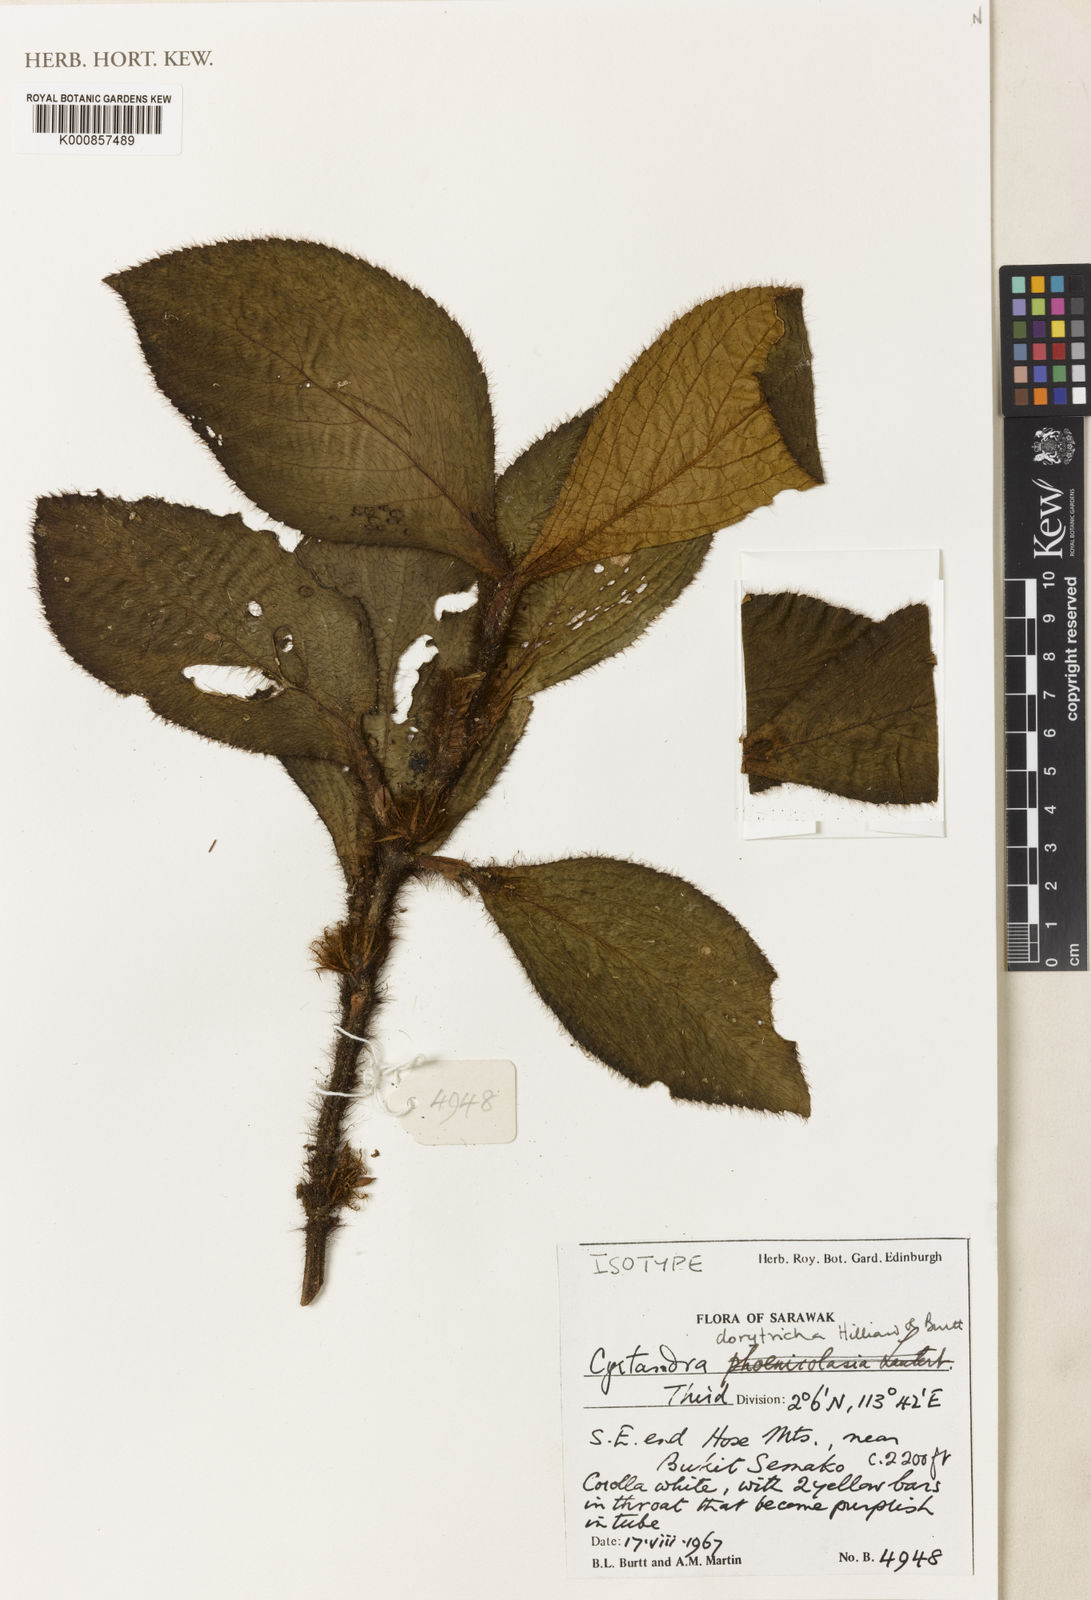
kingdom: Plantae
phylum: Tracheophyta
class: Magnoliopsida
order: Lamiales
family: Gesneriaceae
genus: Cyrtandra
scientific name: Cyrtandra dorytricha
